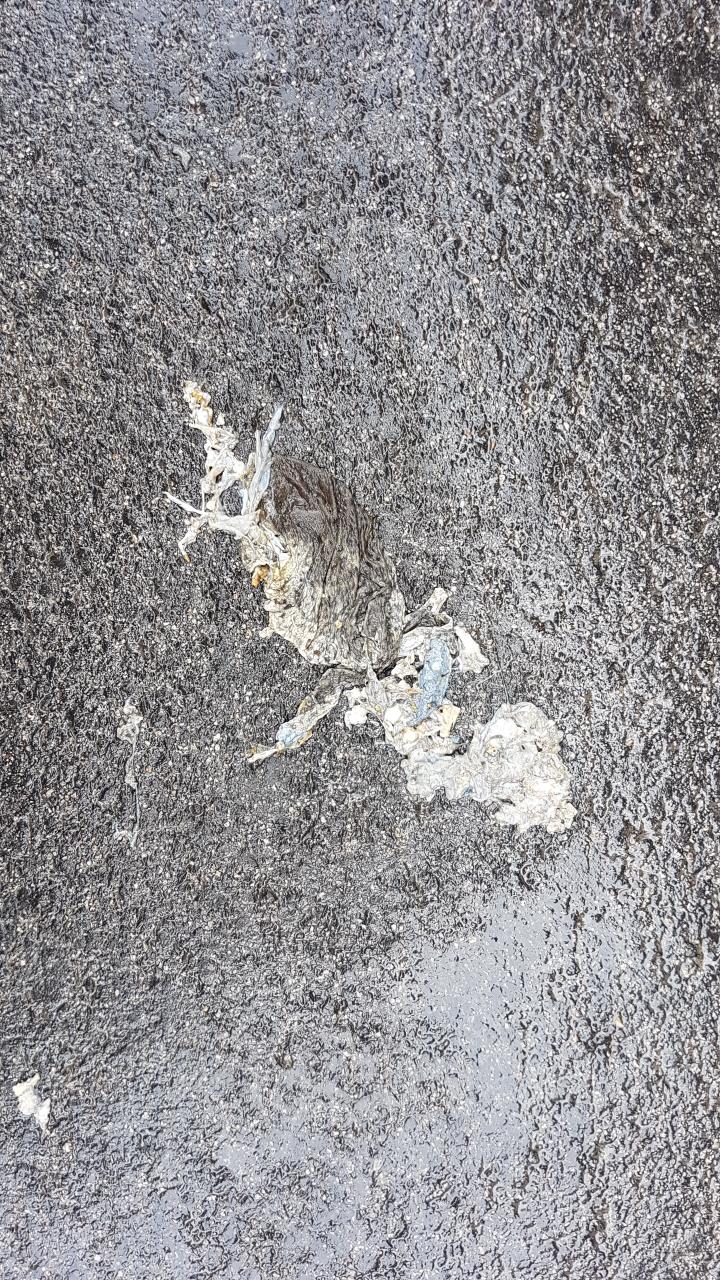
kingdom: Animalia
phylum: Chordata
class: Amphibia
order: Anura
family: Bufonidae
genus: Bufo
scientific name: Bufo bufo
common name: Common toad
